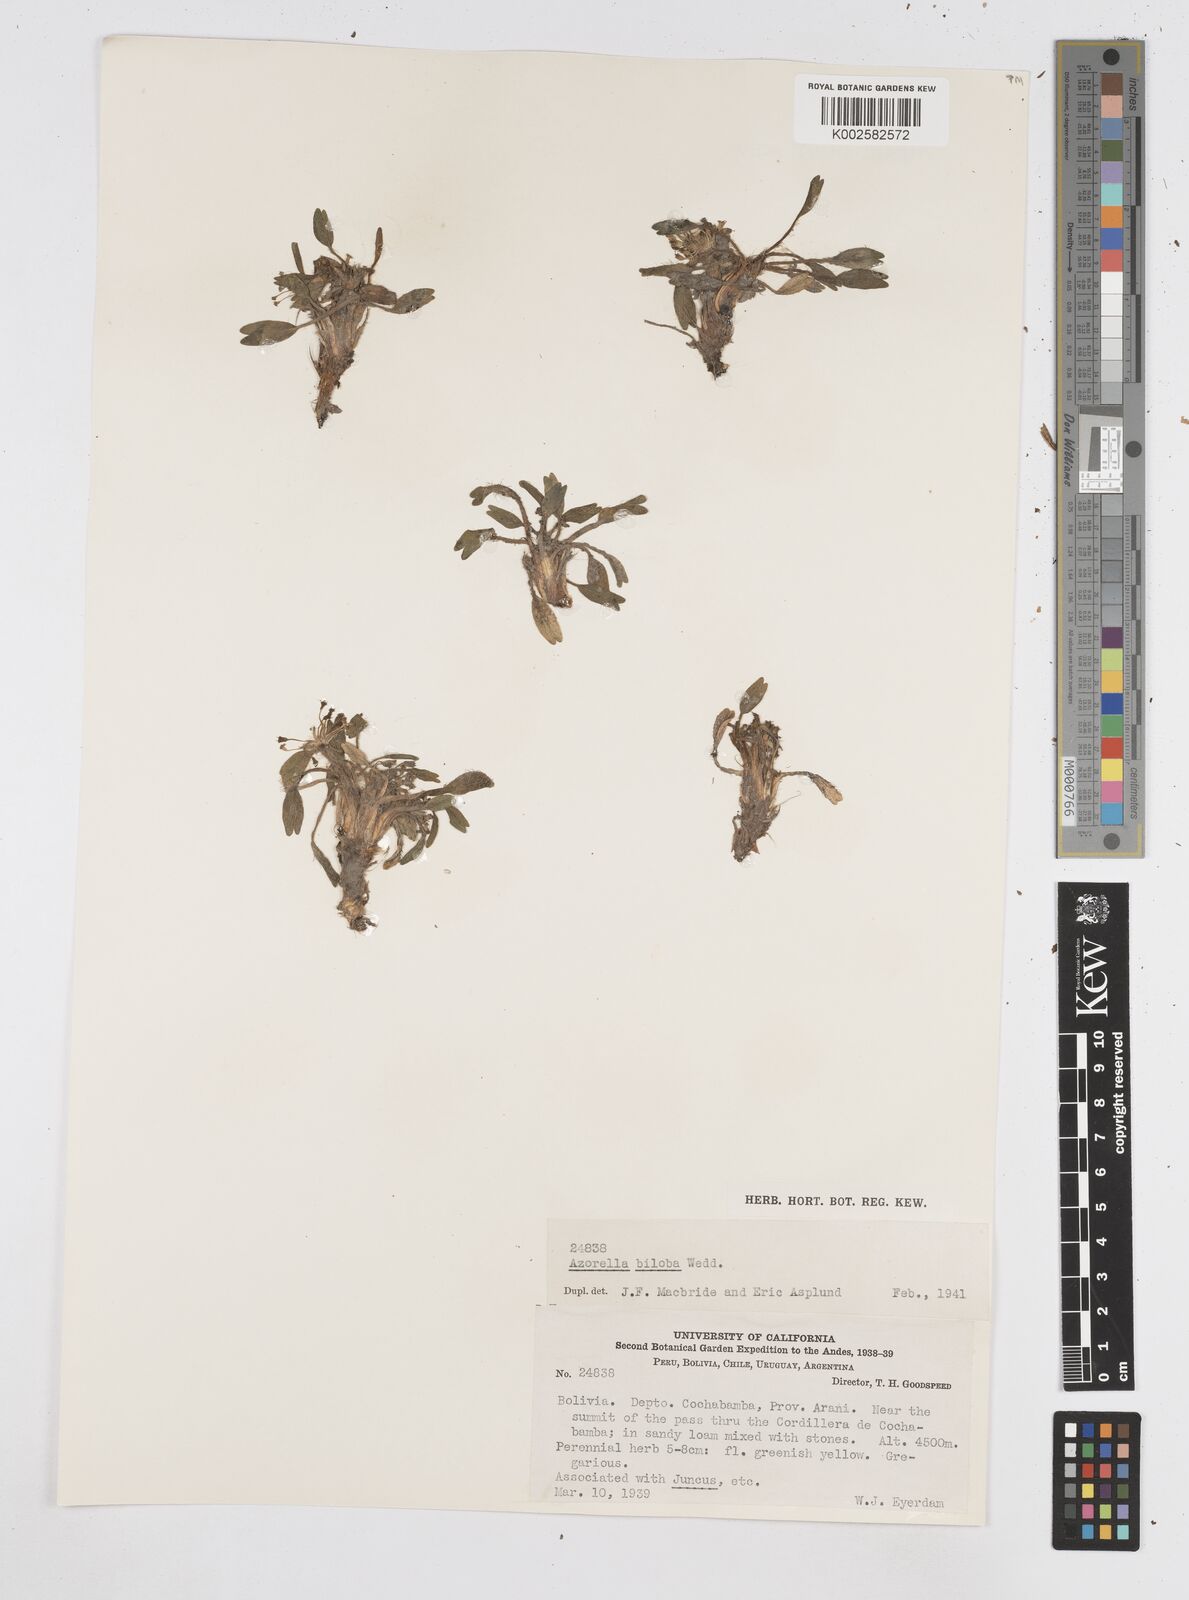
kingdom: Plantae
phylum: Tracheophyta
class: Magnoliopsida
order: Apiales
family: Apiaceae
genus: Azorella
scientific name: Azorella ameghinoi
